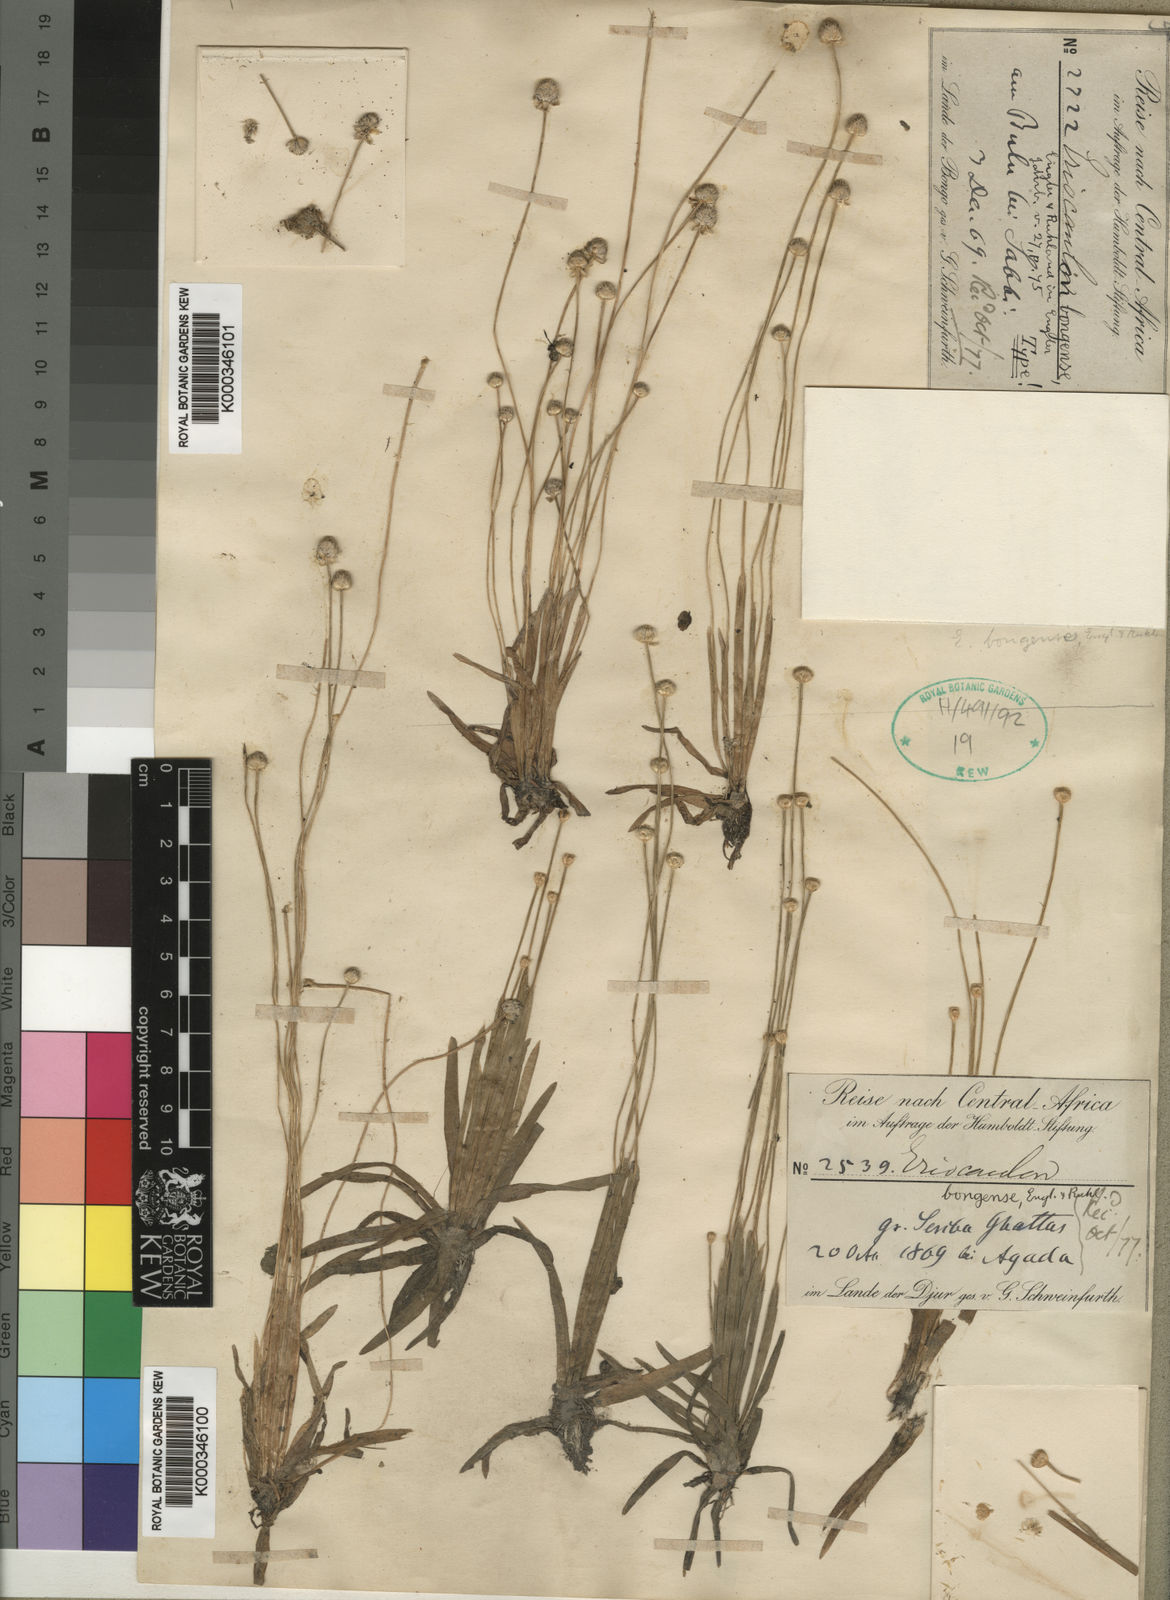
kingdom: Plantae
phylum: Tracheophyta
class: Liliopsida
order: Poales
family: Eriocaulaceae
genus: Eriocaulon
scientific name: Eriocaulon bongense
